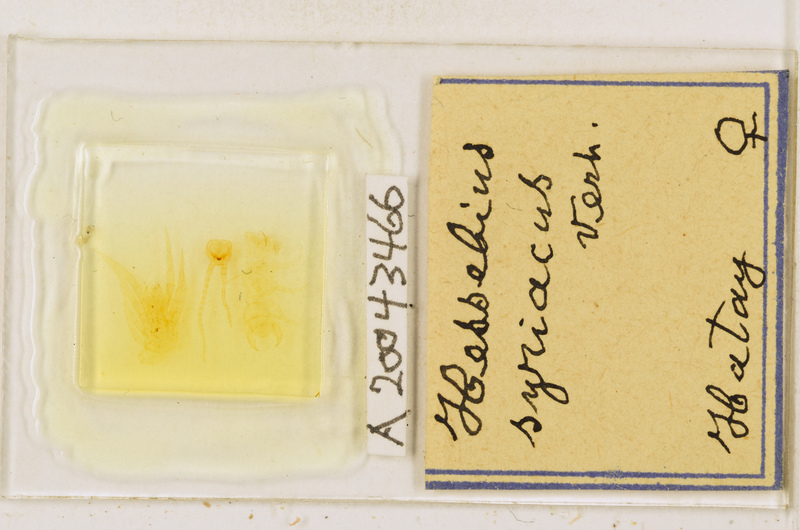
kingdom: Animalia
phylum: Arthropoda
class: Chilopoda
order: Lithobiomorpha
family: Lithobiidae
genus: Hessebius
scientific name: Hessebius
